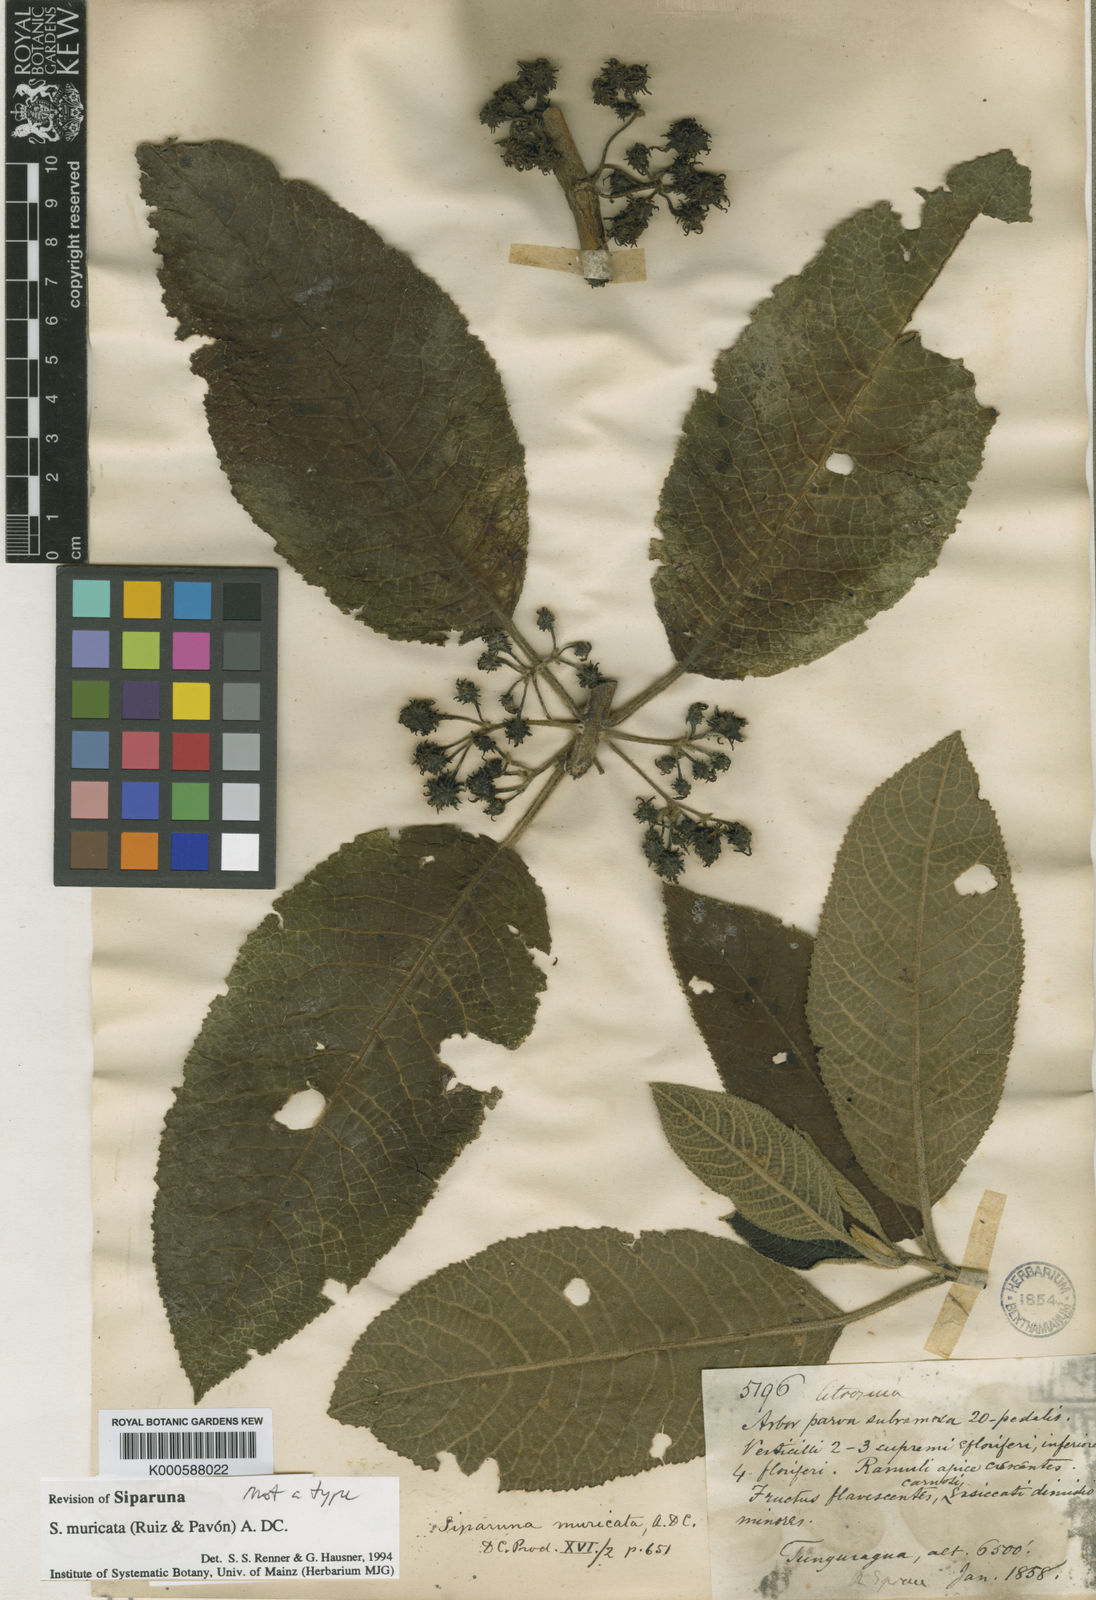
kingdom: Plantae
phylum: Tracheophyta
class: Magnoliopsida
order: Laurales
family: Siparunaceae
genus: Siparuna
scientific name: Siparuna muricata
